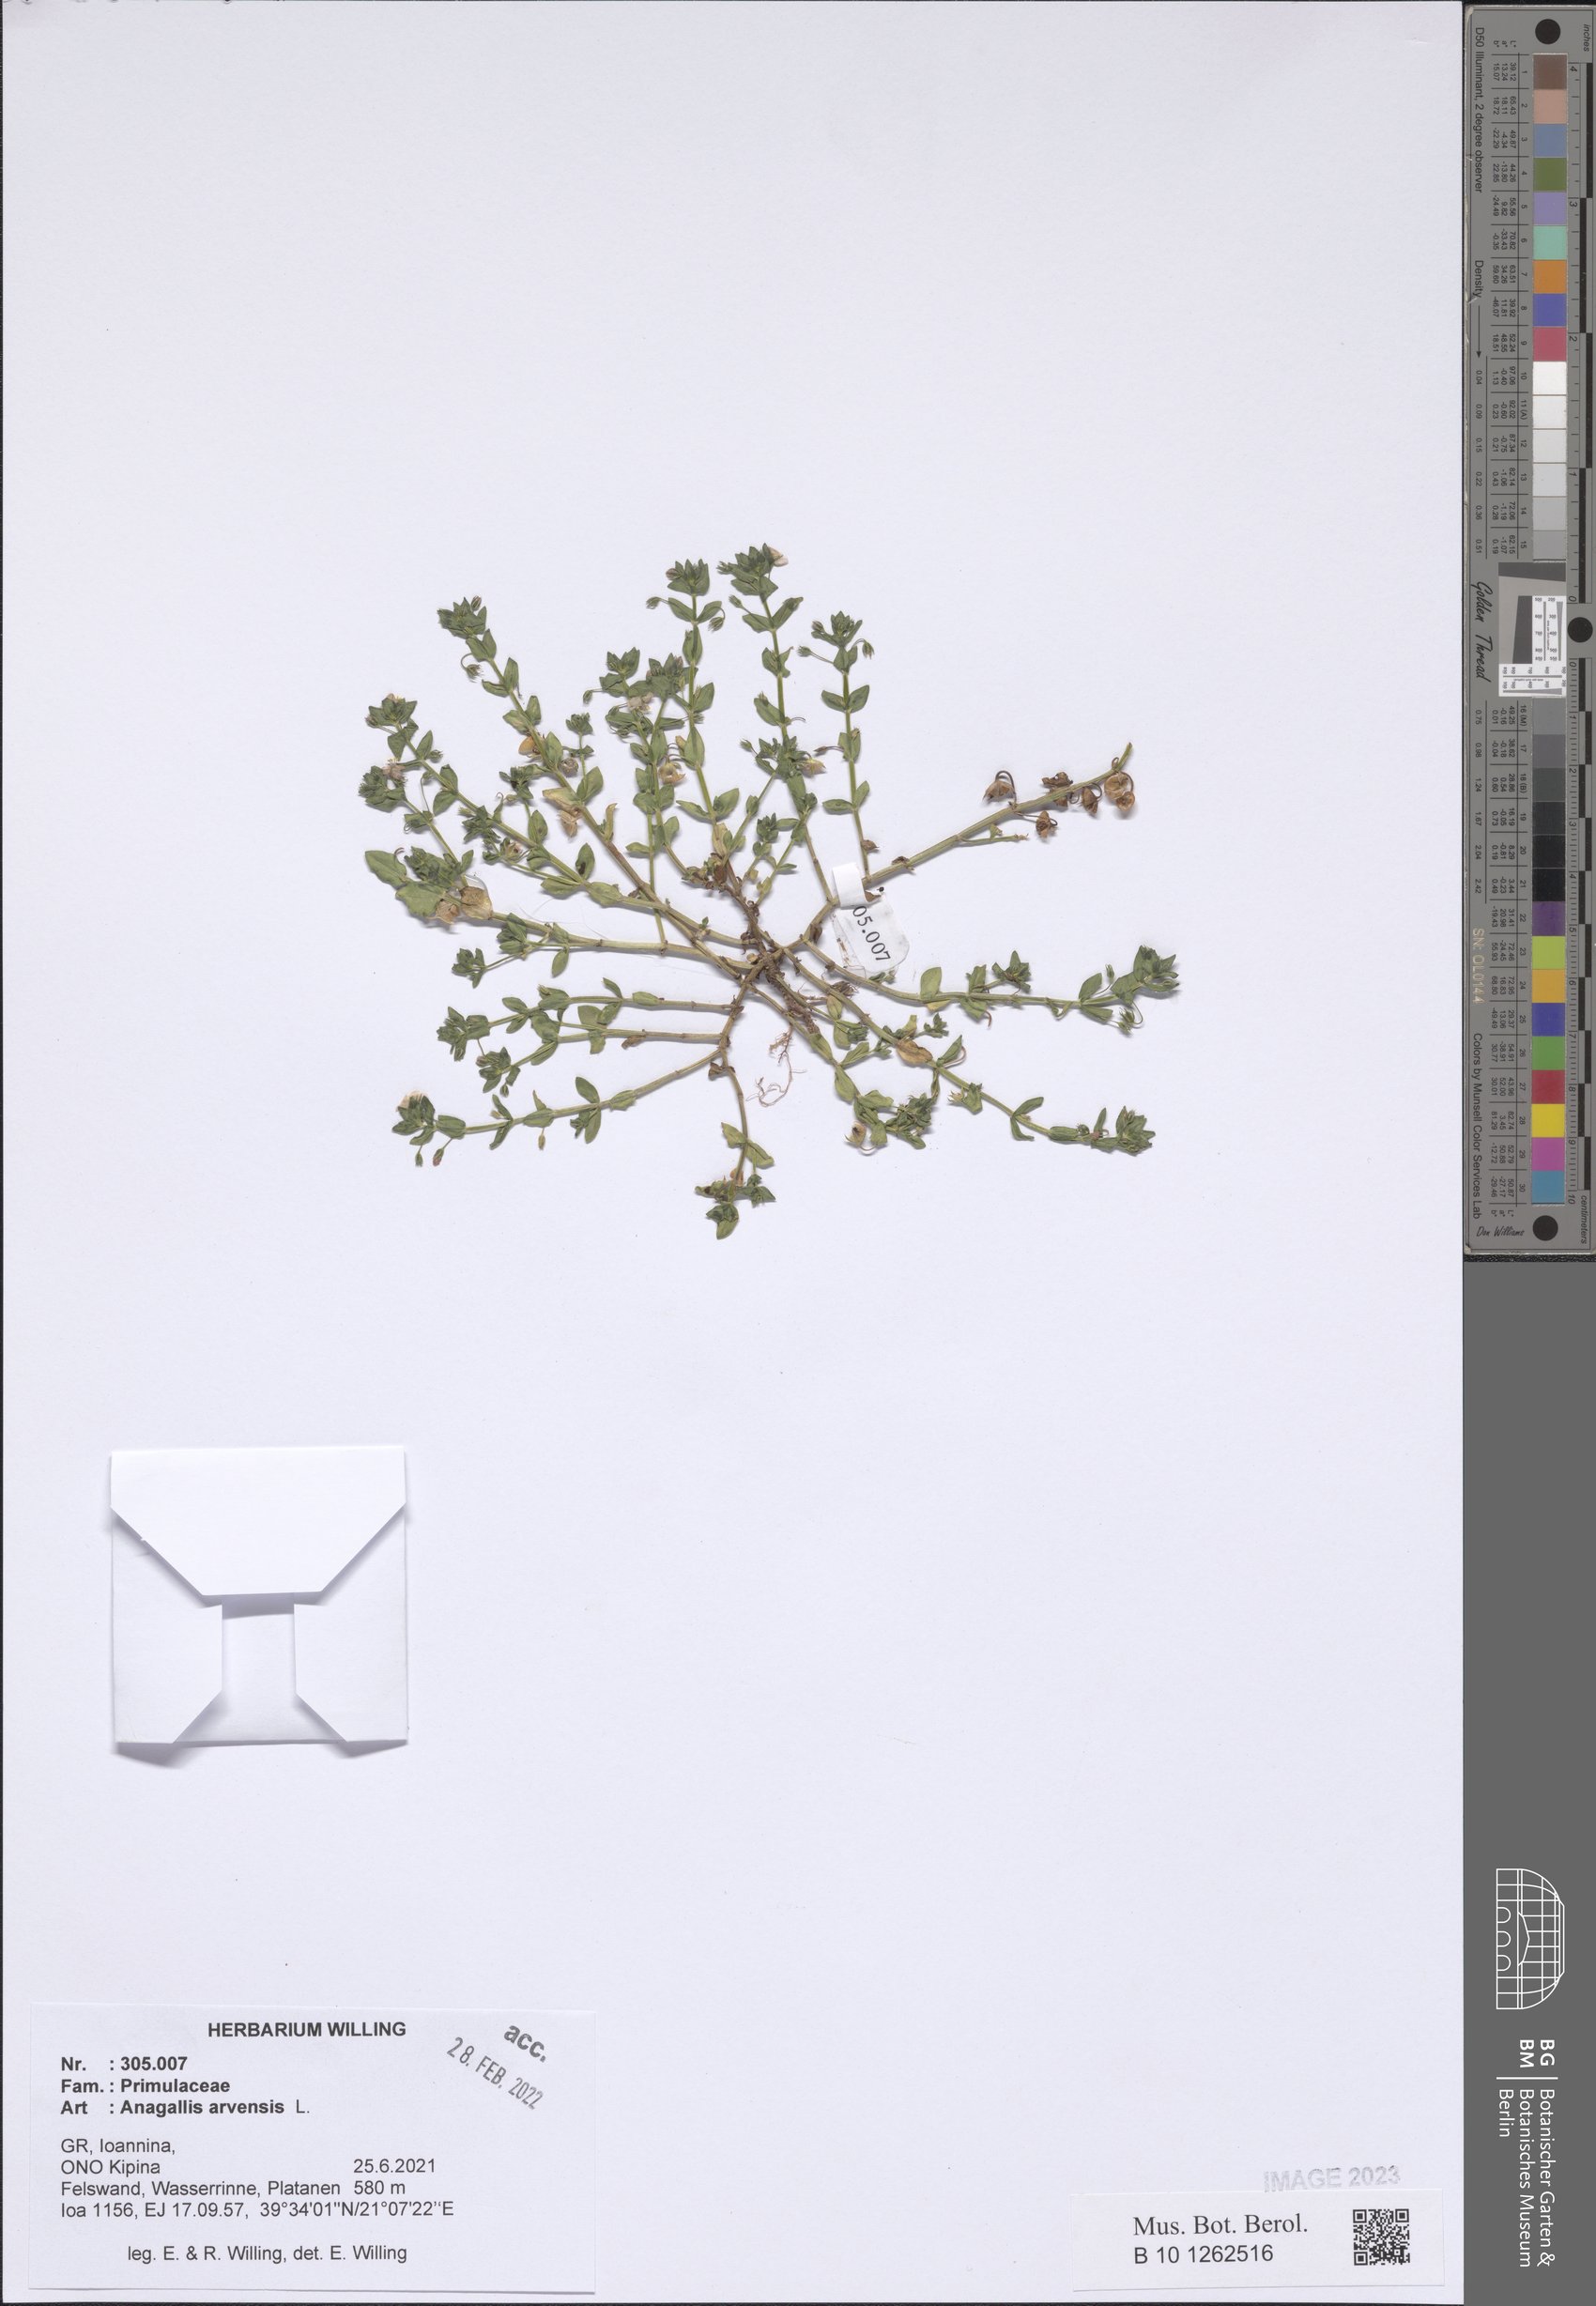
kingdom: Plantae
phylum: Tracheophyta
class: Magnoliopsida
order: Ericales
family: Primulaceae
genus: Lysimachia
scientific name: Lysimachia arvensis
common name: Scarlet pimpernel
